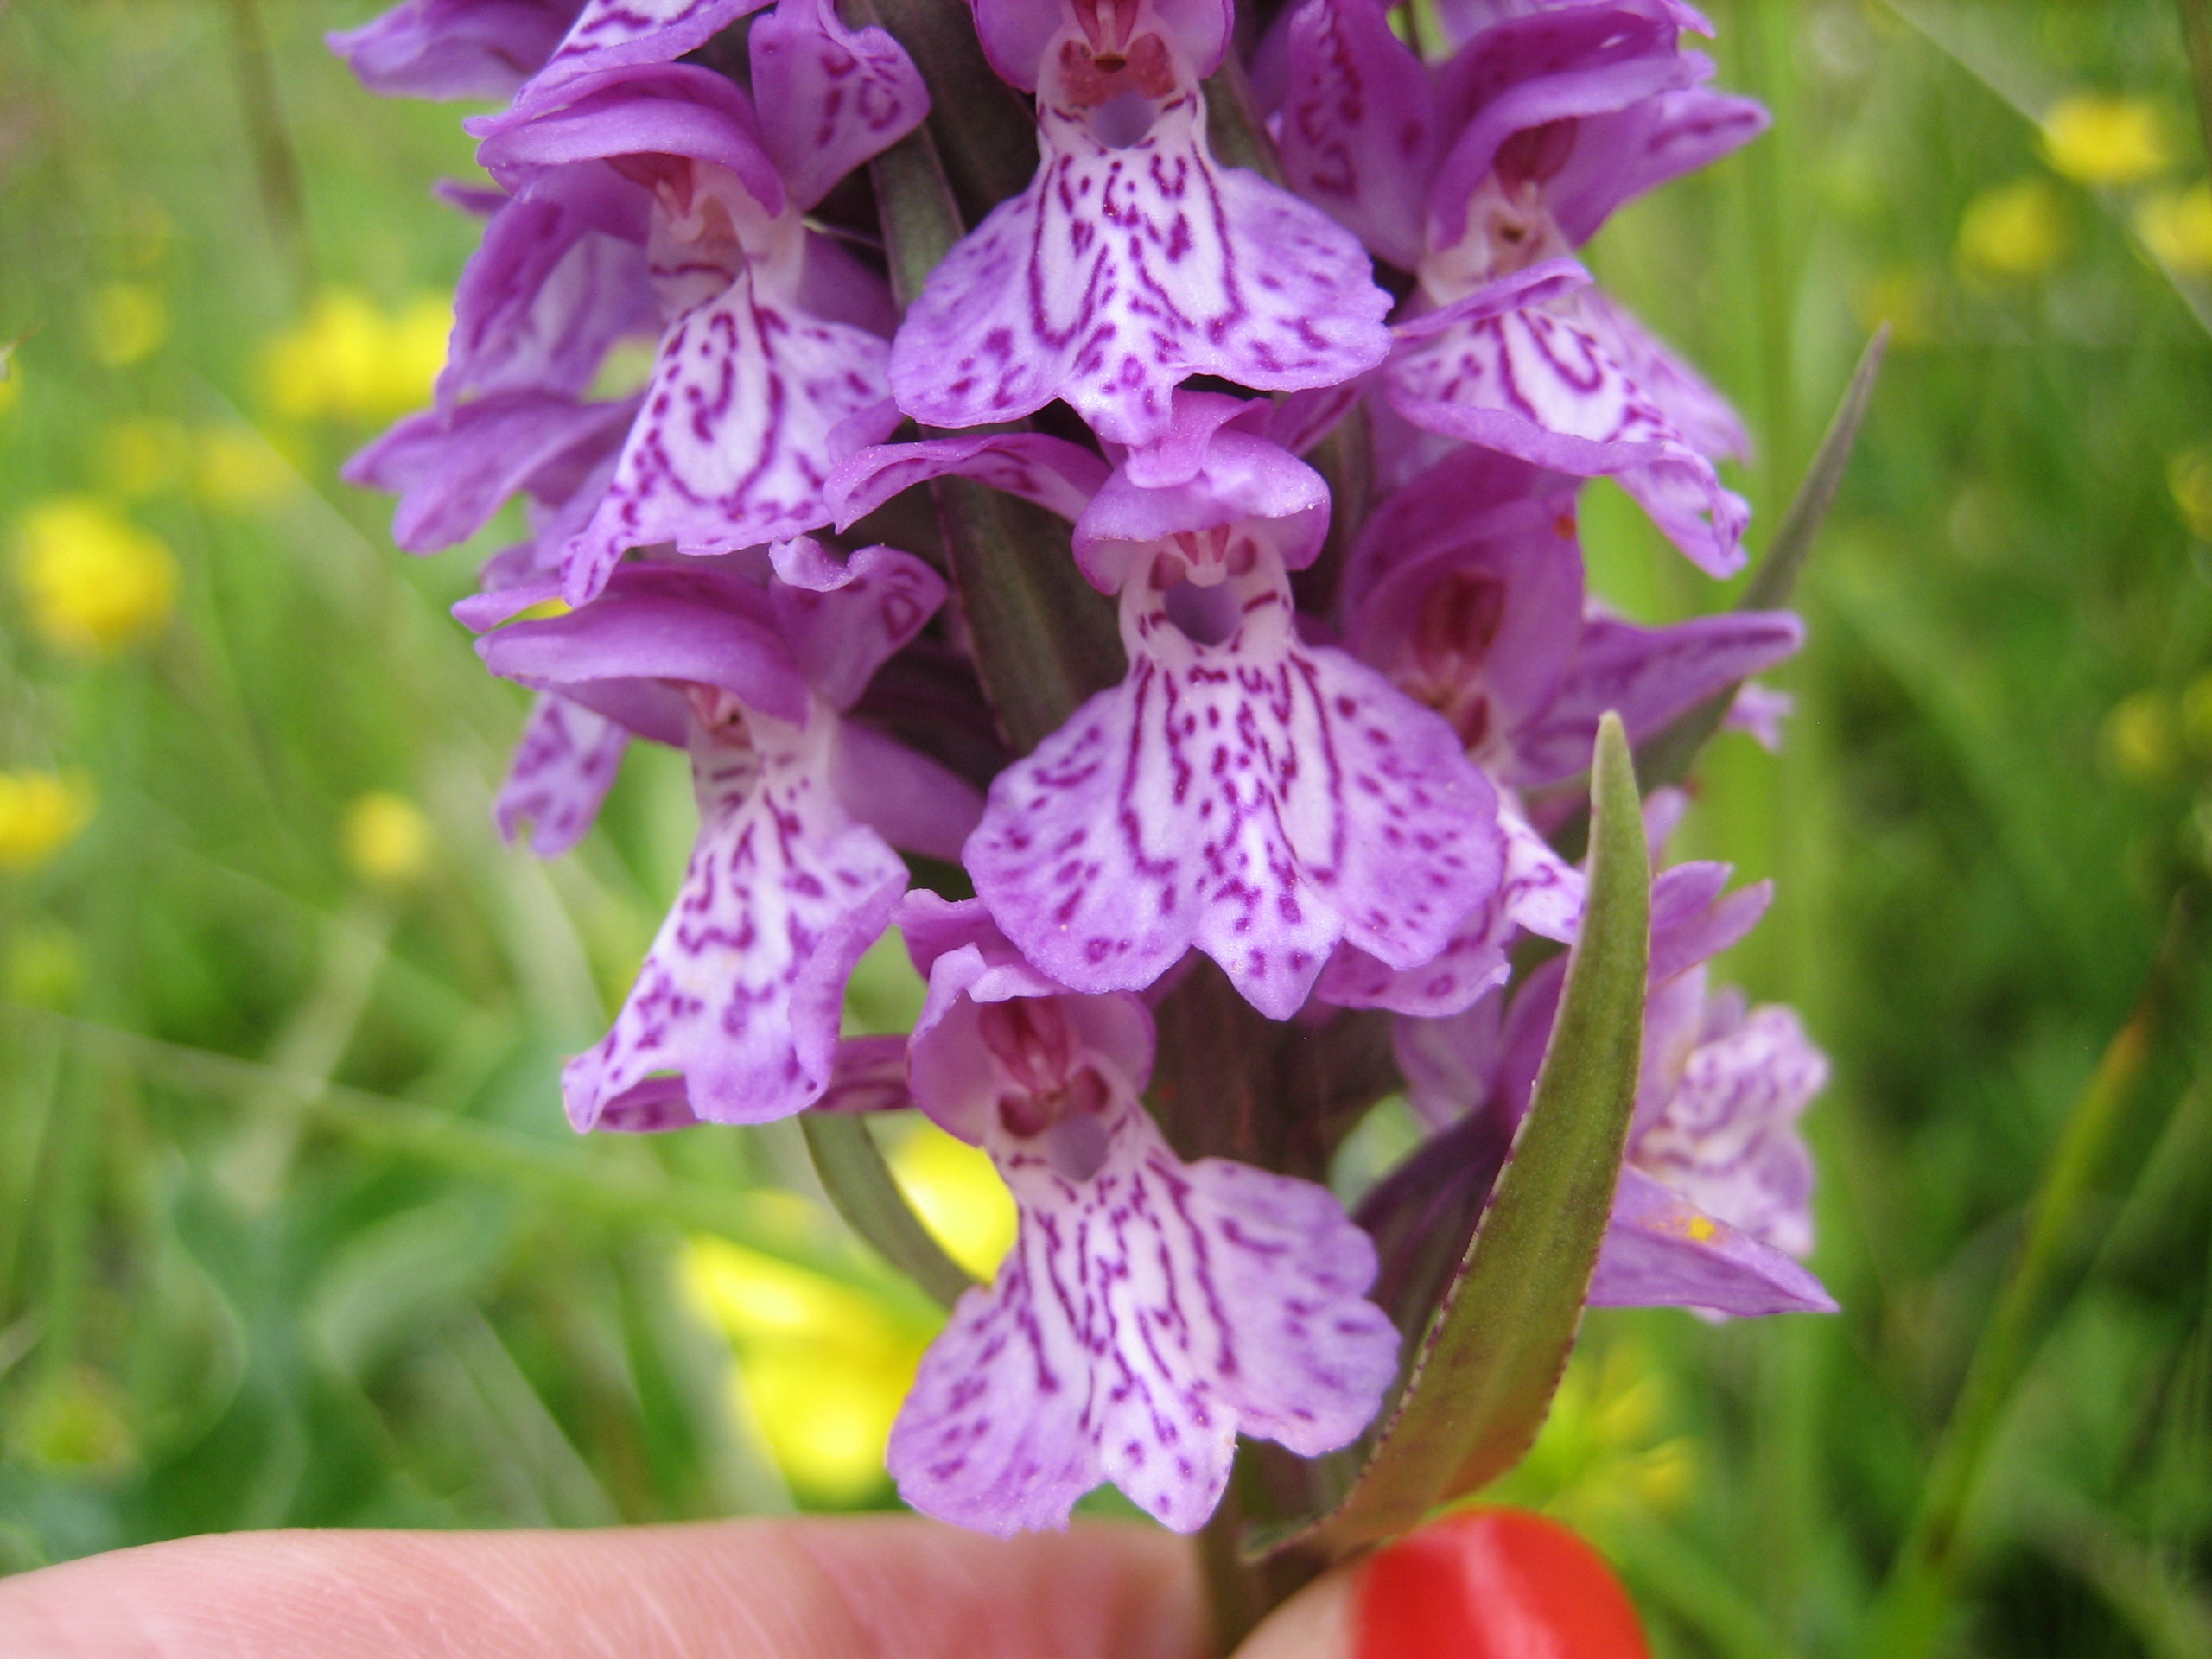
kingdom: Plantae
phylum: Tracheophyta
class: Liliopsida
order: Asparagales
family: Orchidaceae
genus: Dactylorhiza
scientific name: Dactylorhiza majalis
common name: Ringplettet gøgeurt
